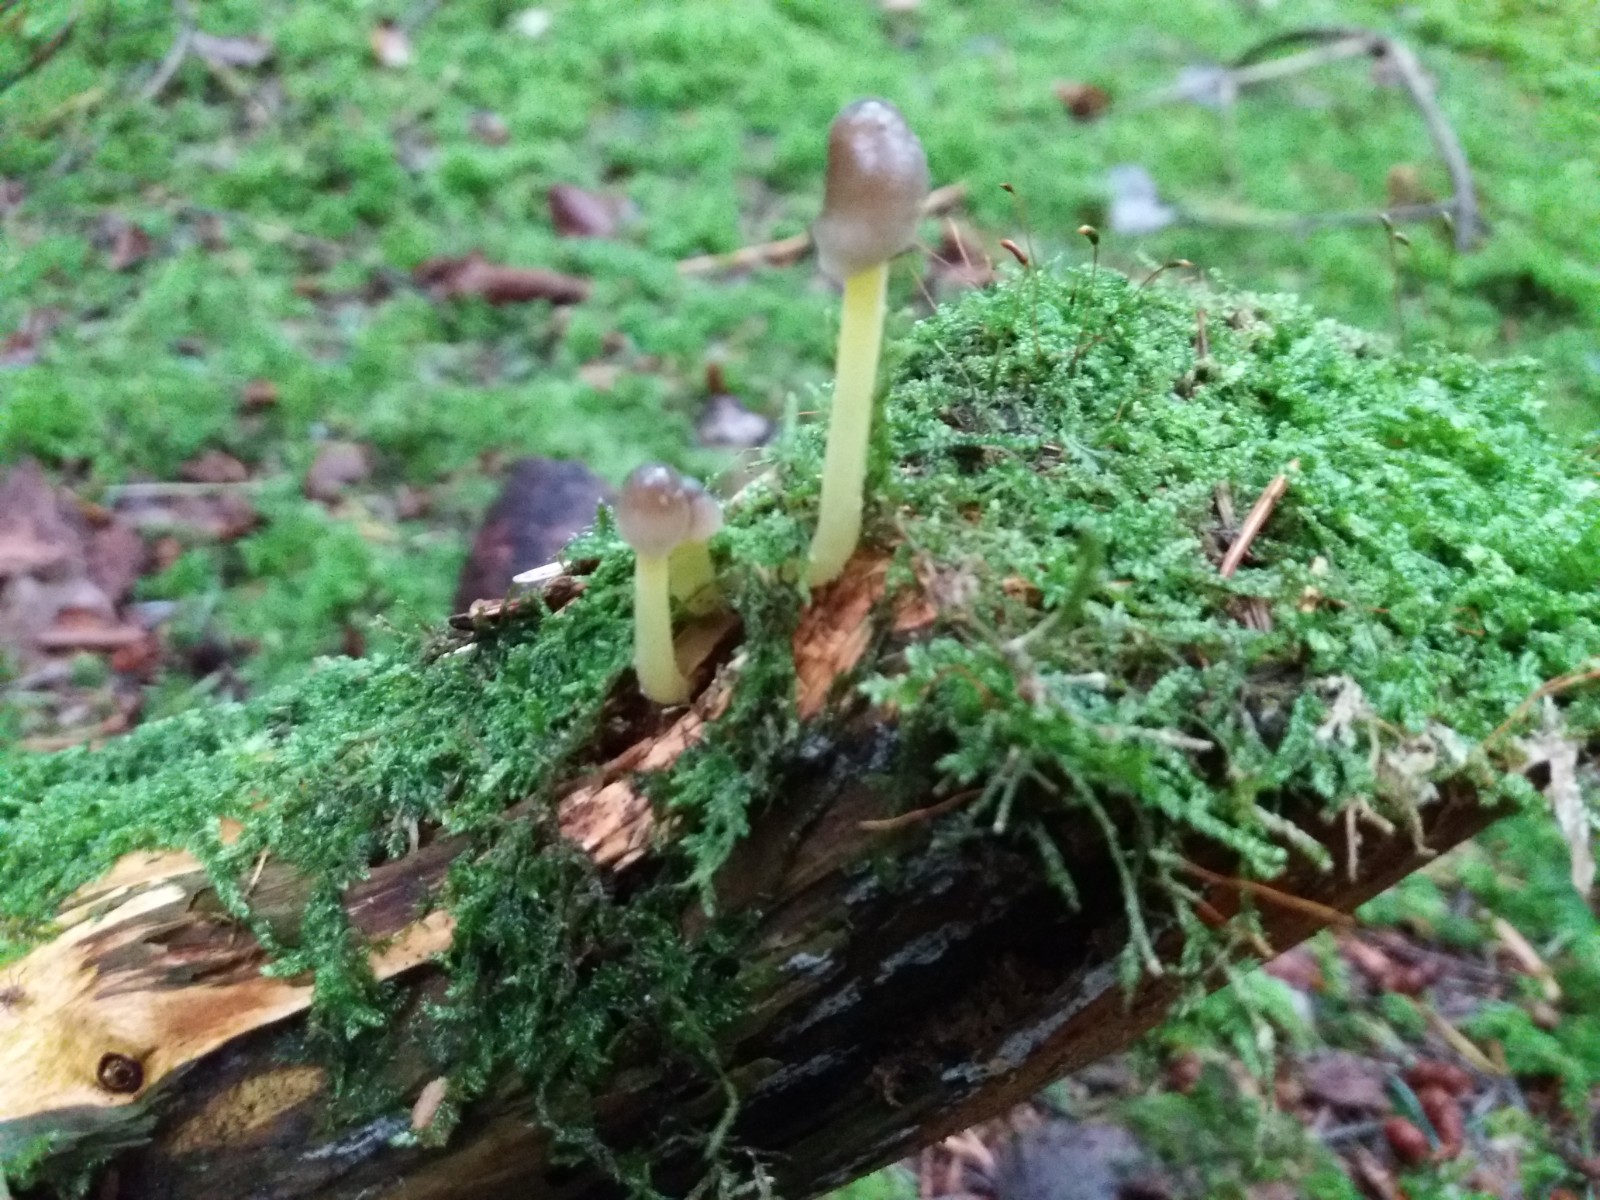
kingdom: Fungi
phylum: Basidiomycota
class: Agaricomycetes
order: Agaricales
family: Mycenaceae
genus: Mycena
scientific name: Mycena epipterygia
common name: Yellowleg bonnet
